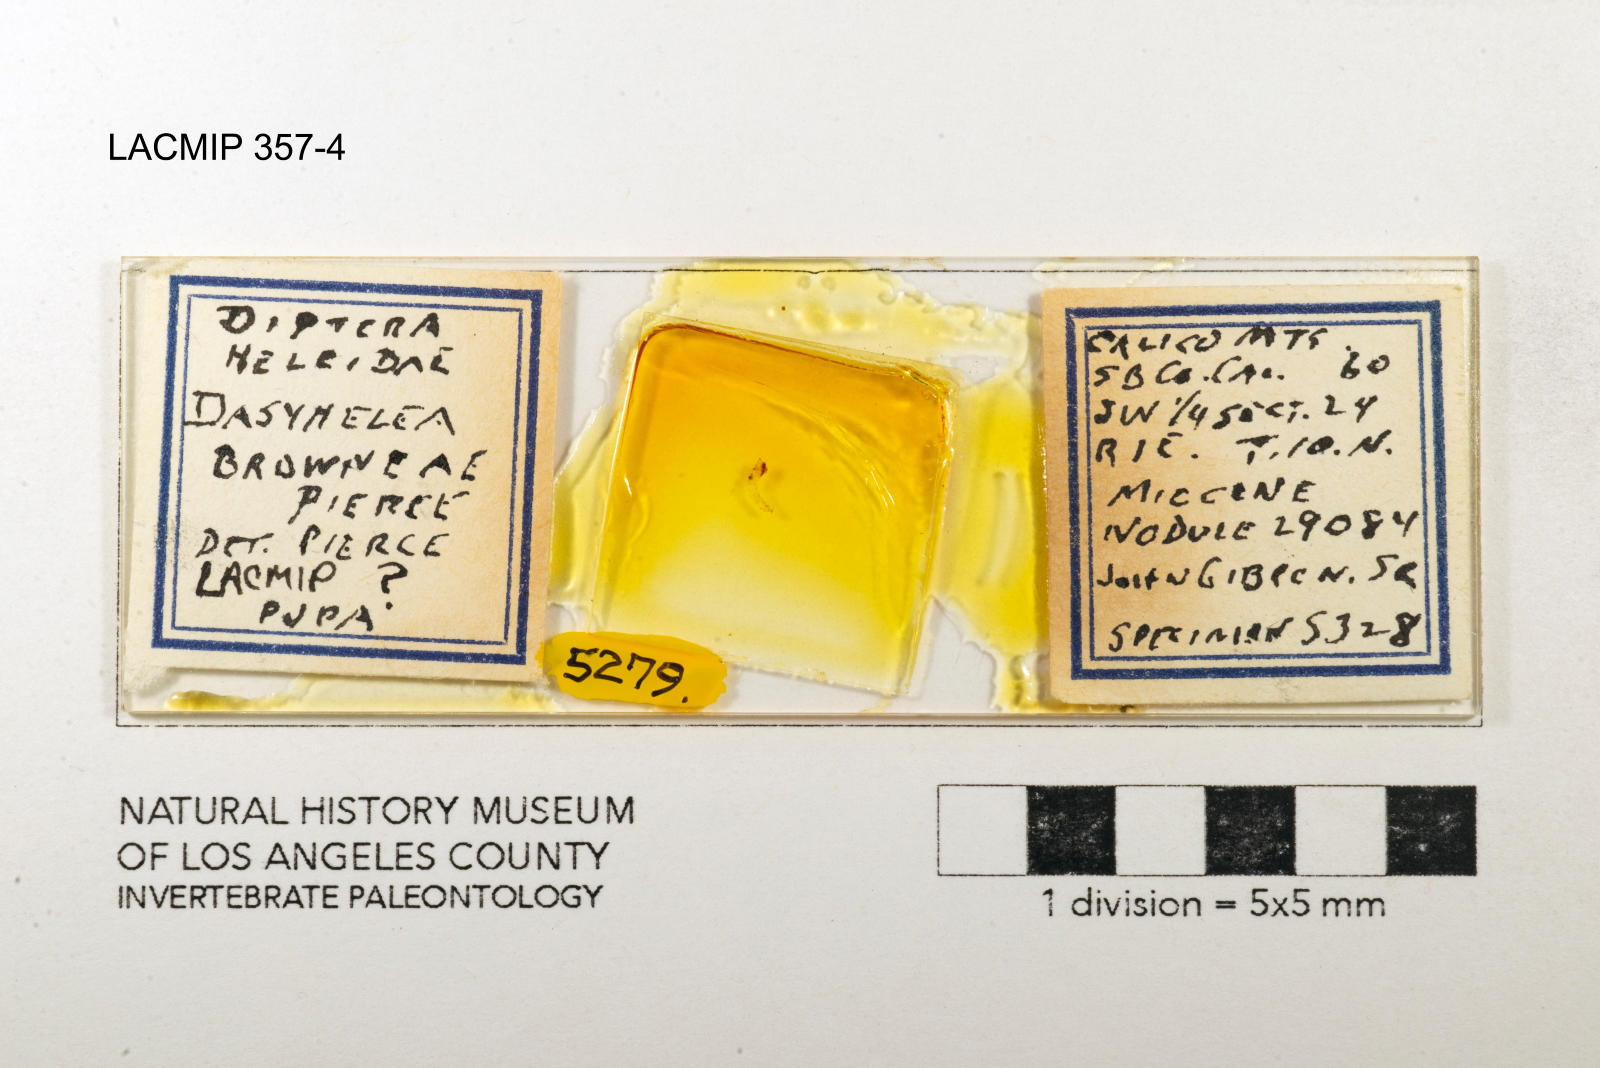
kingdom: Animalia
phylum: Arthropoda
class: Insecta
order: Diptera
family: Ceratopogonidae
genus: Dasyhelea
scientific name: Dasyhelea browneae
